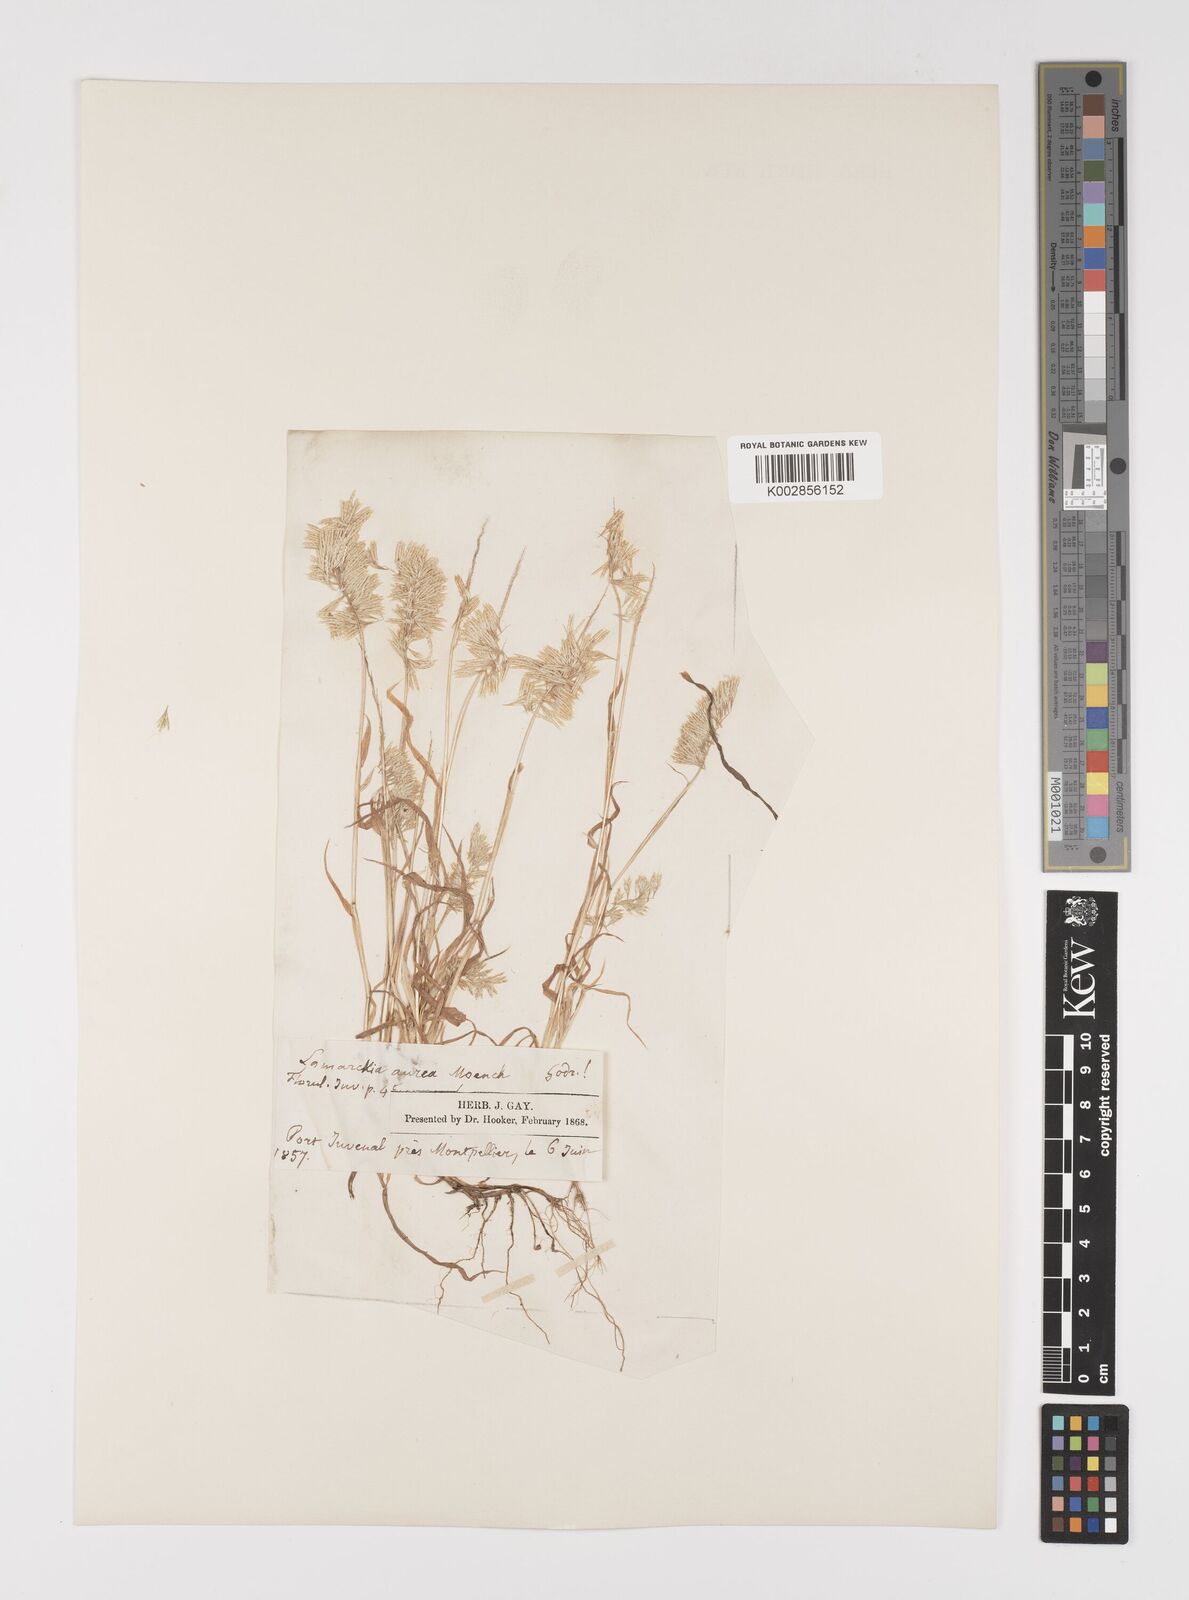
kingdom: Plantae
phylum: Tracheophyta
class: Liliopsida
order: Poales
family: Poaceae
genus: Lamarckia
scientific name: Lamarckia aurea
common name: Golden dog's-tail
